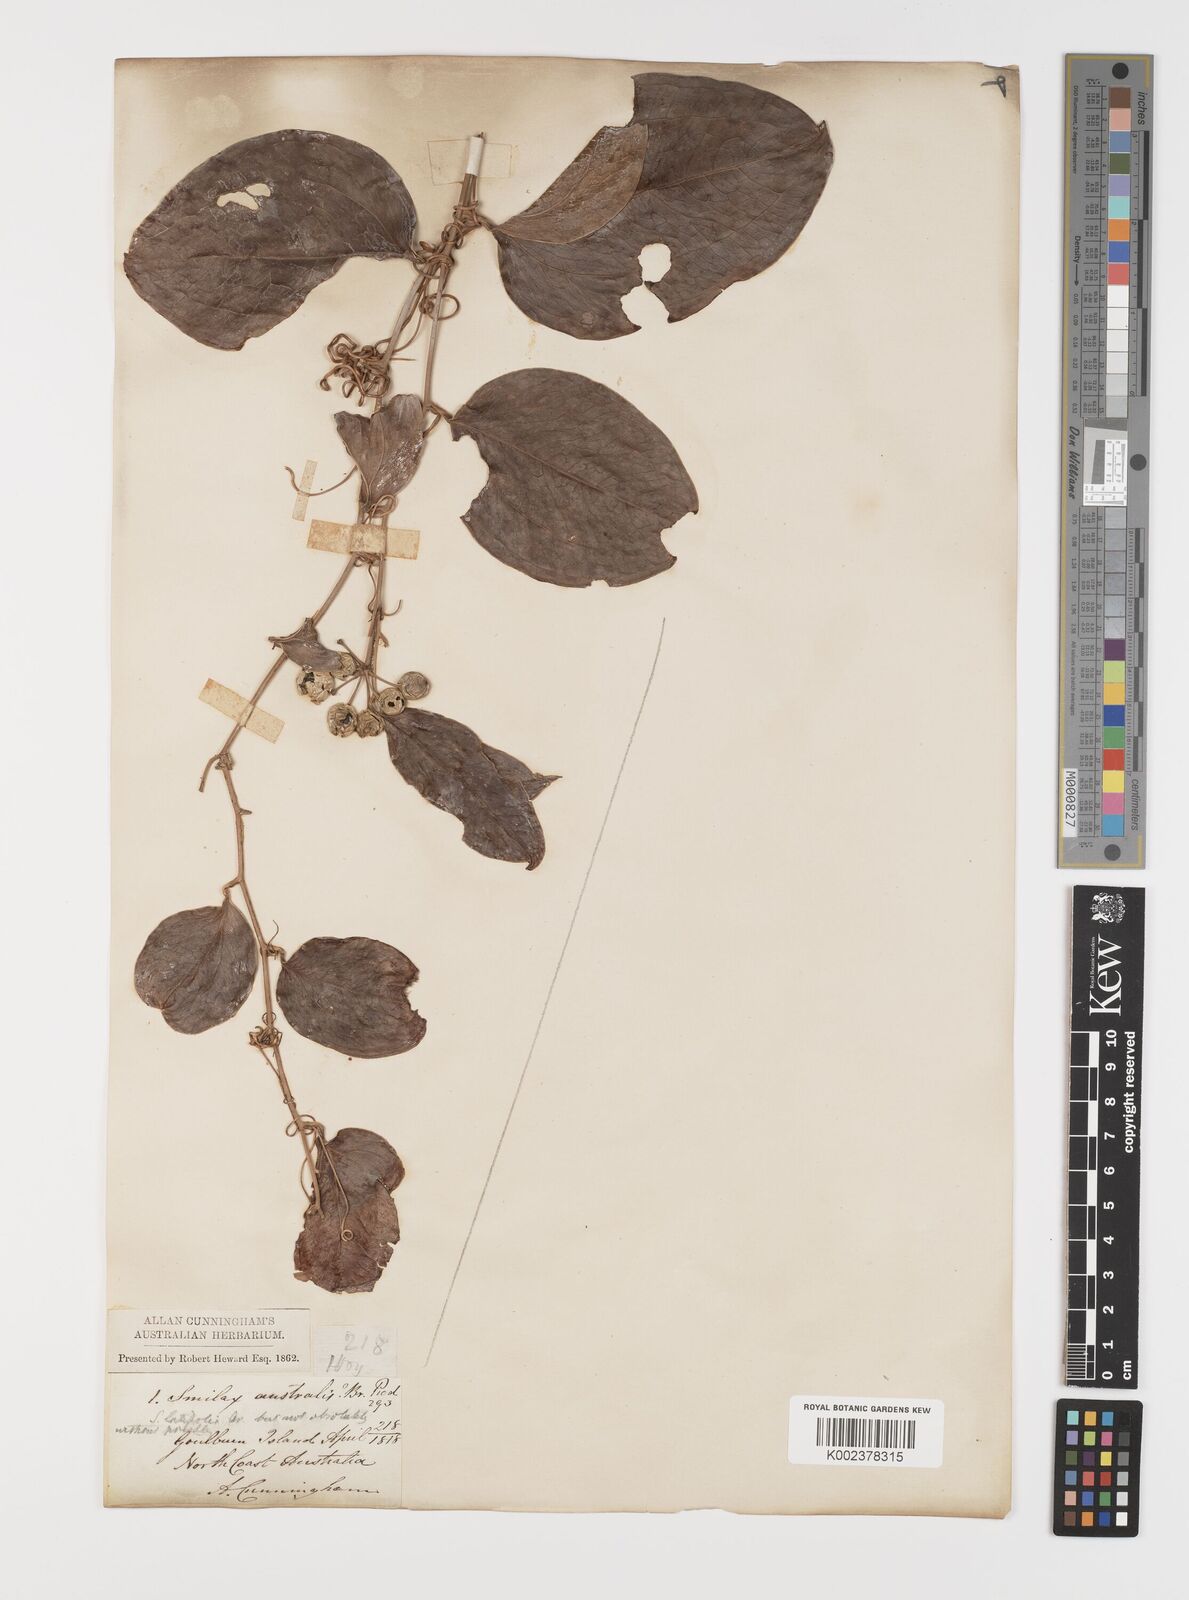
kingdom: Plantae
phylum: Tracheophyta
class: Liliopsida
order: Liliales
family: Smilacaceae
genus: Smilax
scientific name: Smilax australis
